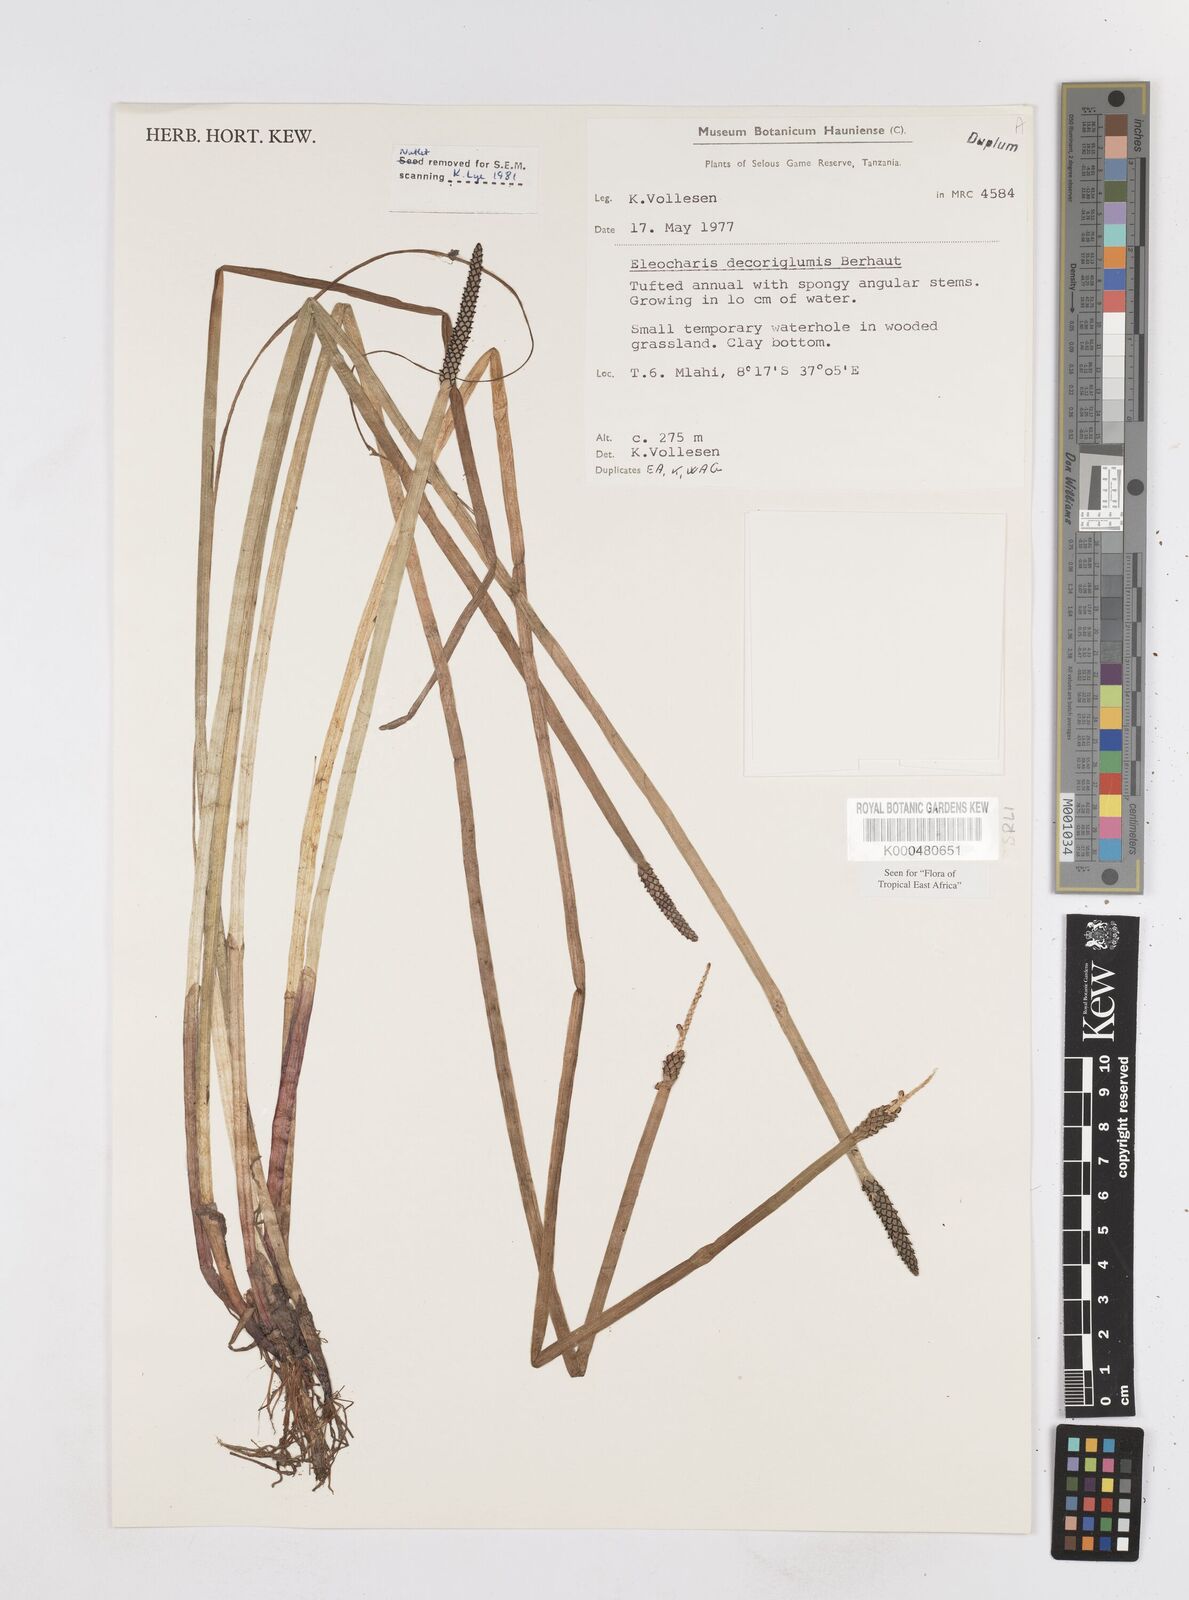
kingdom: Plantae
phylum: Tracheophyta
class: Liliopsida
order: Poales
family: Cyperaceae
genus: Eleocharis
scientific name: Eleocharis decoriglumis
